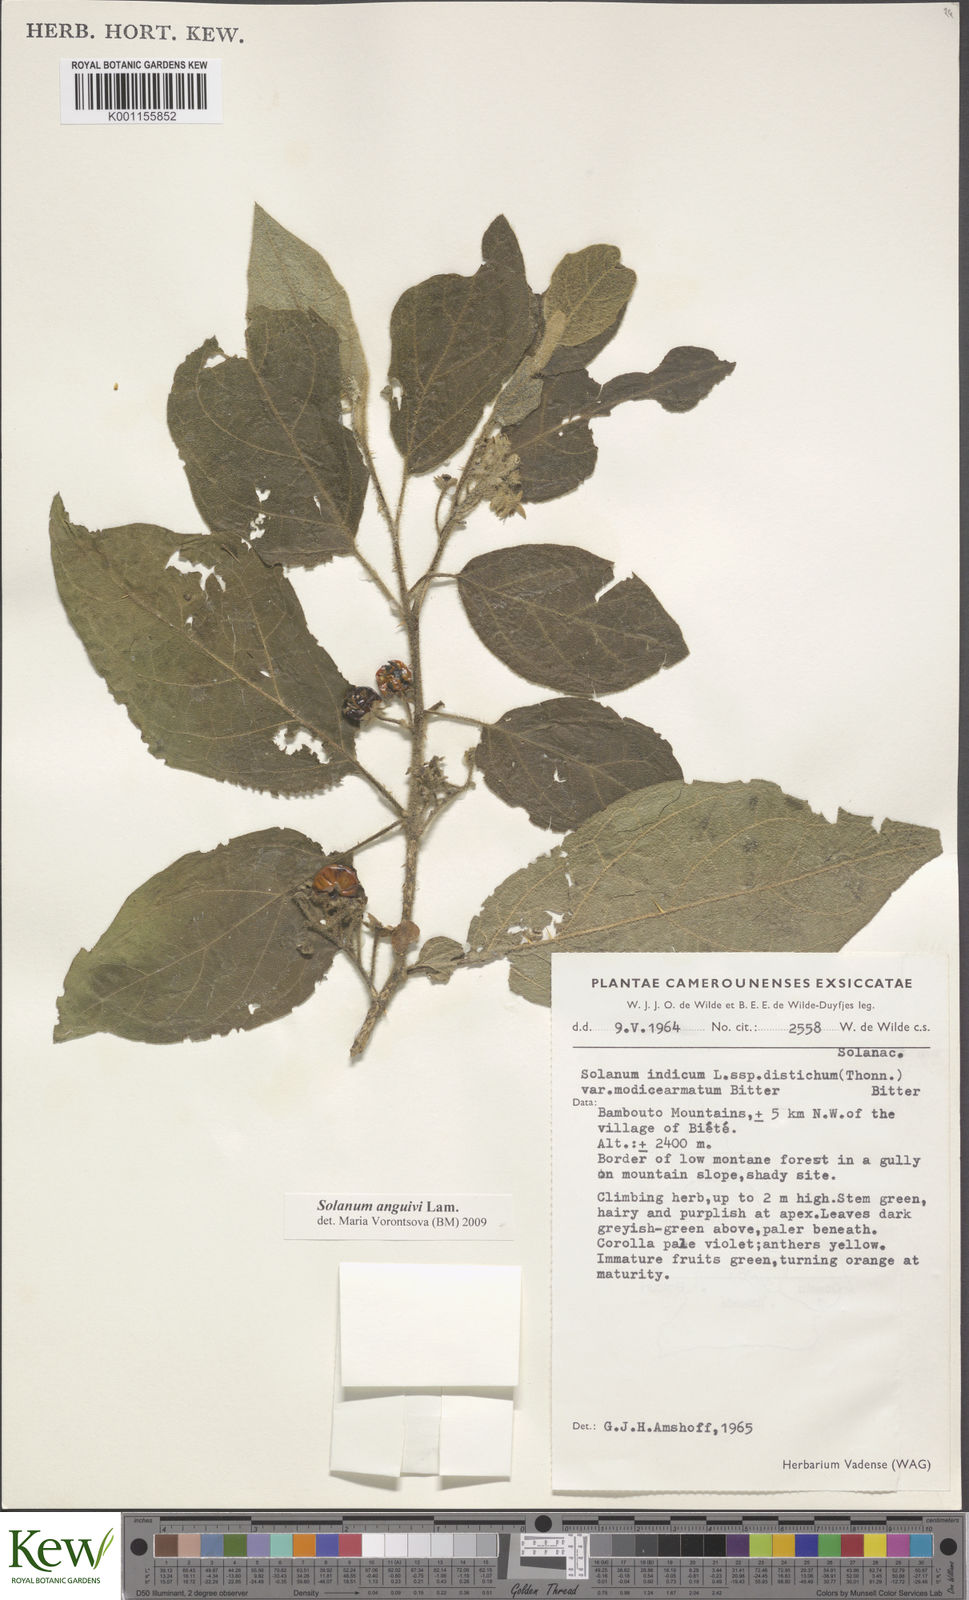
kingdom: Plantae
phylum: Tracheophyta
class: Magnoliopsida
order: Solanales
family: Solanaceae
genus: Solanum
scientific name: Solanum anguivi
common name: Forest bitterberry
